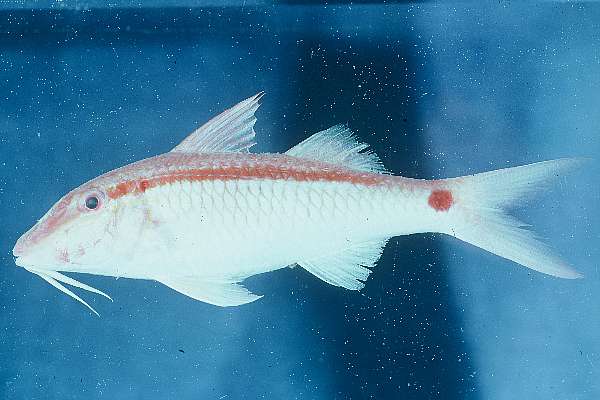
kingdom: Animalia
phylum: Chordata
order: Perciformes
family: Mullidae
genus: Parupeneus
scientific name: Parupeneus barberinus
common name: Dash-and-dot goatfish
